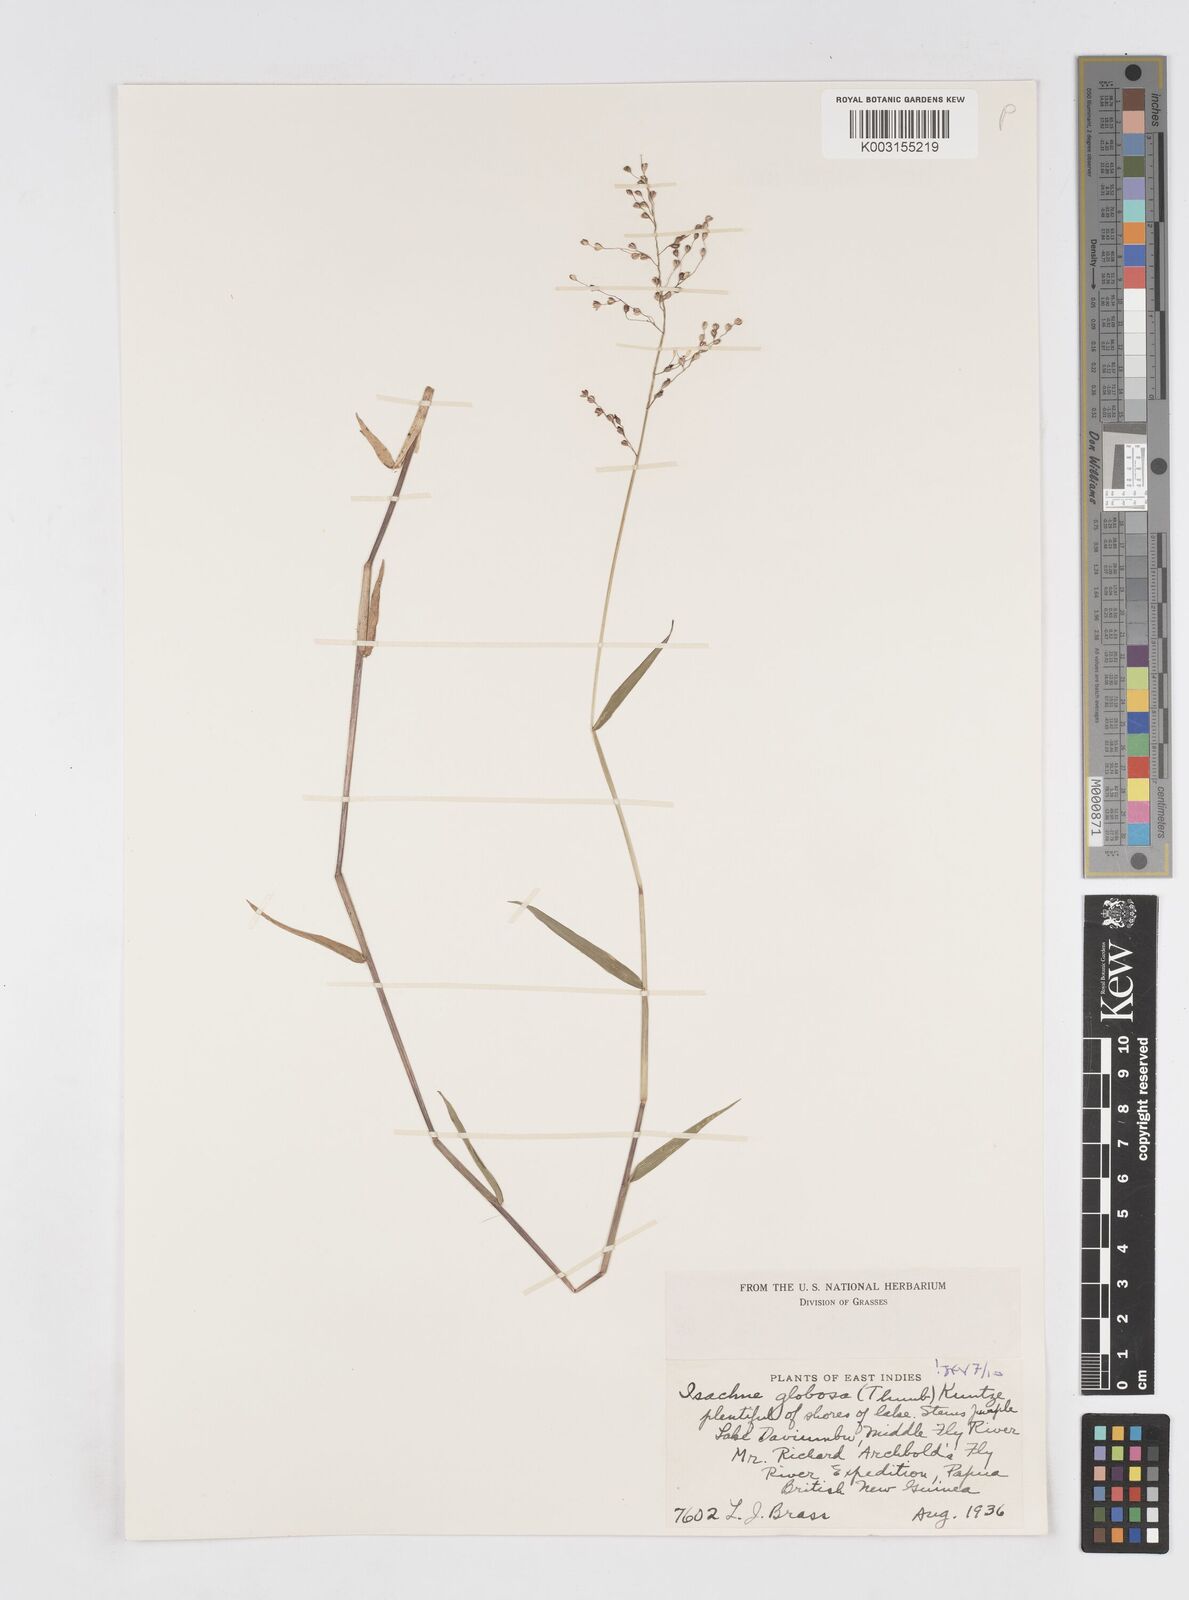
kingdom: Plantae
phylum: Tracheophyta
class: Liliopsida
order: Poales
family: Poaceae
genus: Isachne
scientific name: Isachne globosa
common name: Swamp millet
